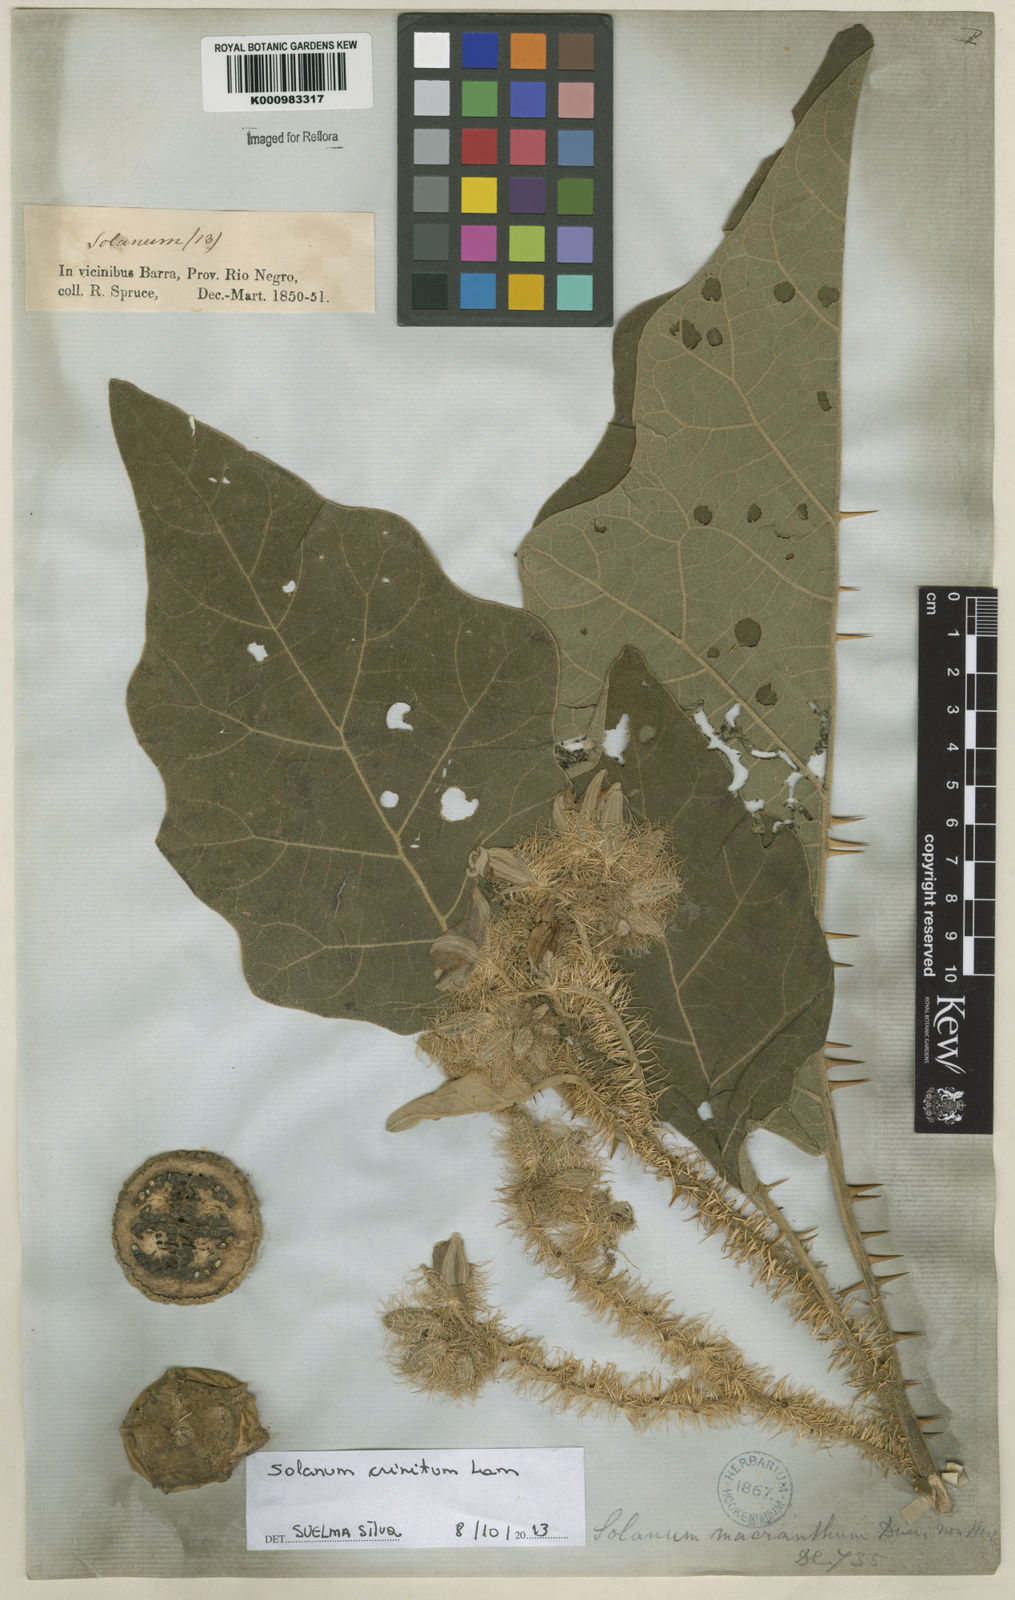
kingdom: Plantae
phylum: Tracheophyta
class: Magnoliopsida
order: Solanales
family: Solanaceae
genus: Solanum
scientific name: Solanum crinitum
